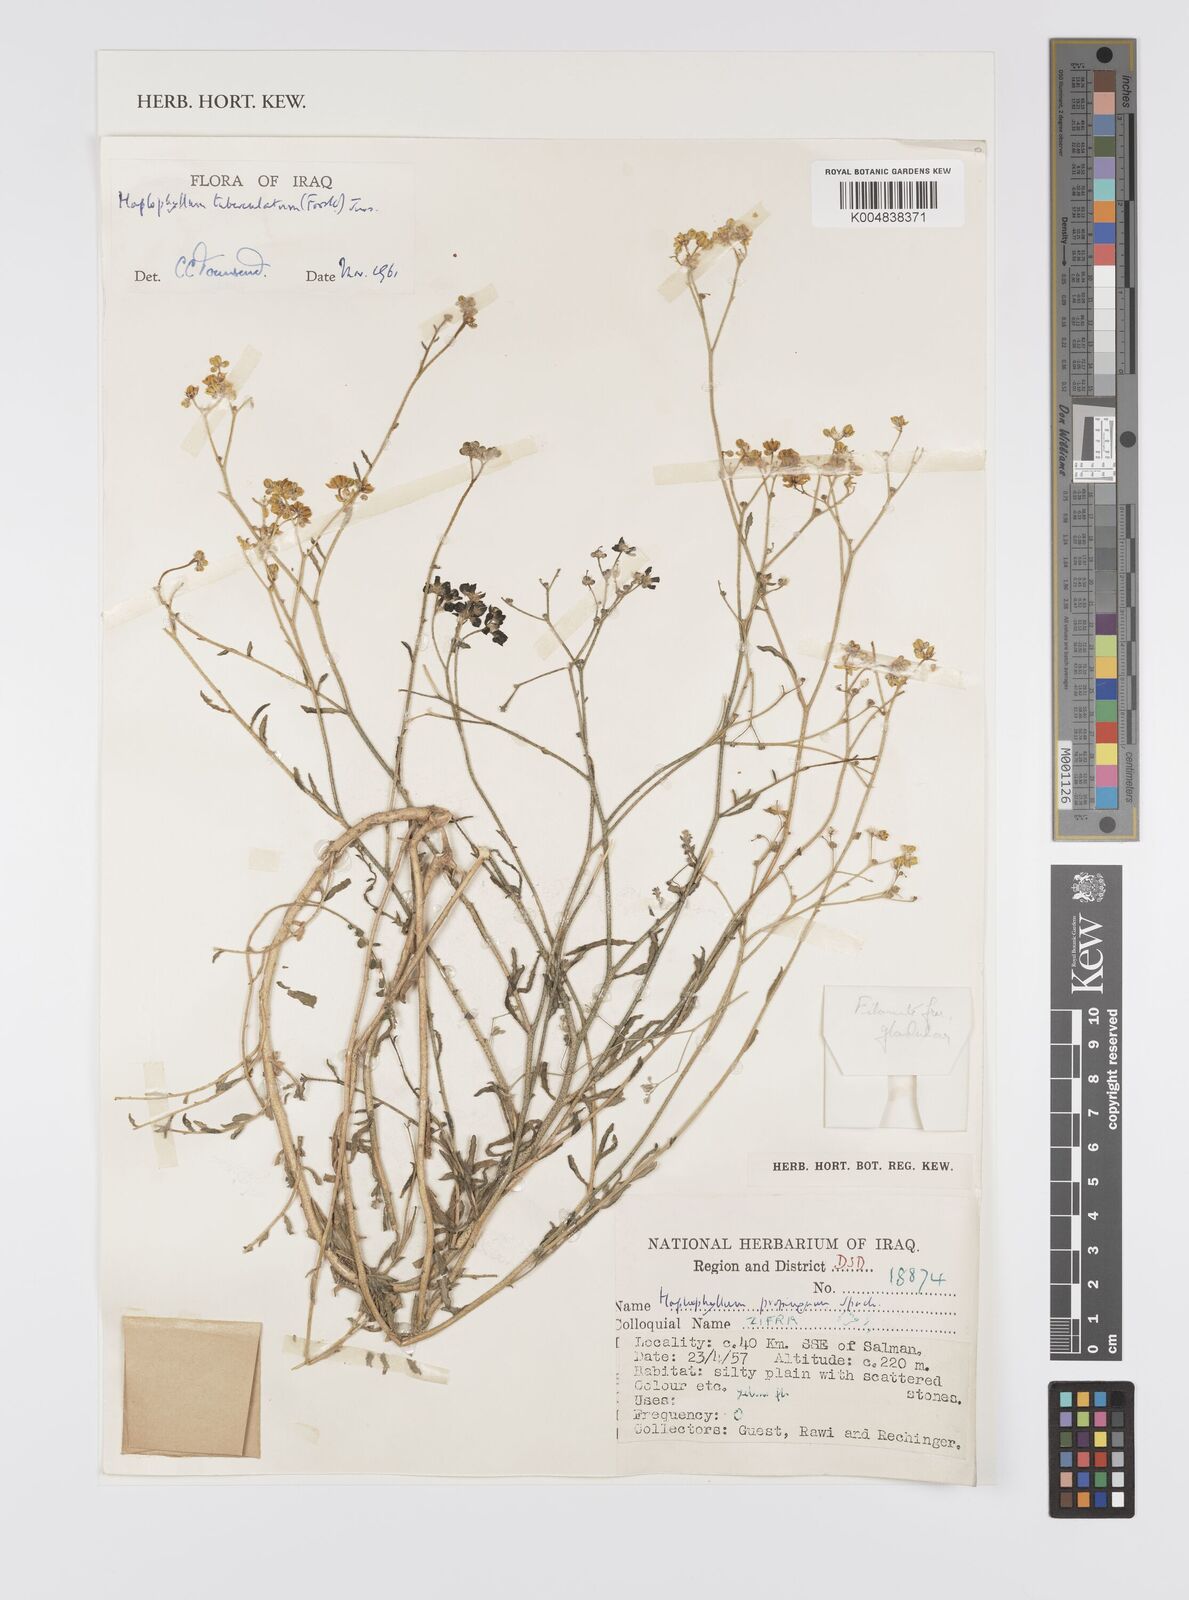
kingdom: Plantae
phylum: Tracheophyta
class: Magnoliopsida
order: Sapindales
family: Rutaceae
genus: Haplophyllum
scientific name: Haplophyllum tuberculatum
